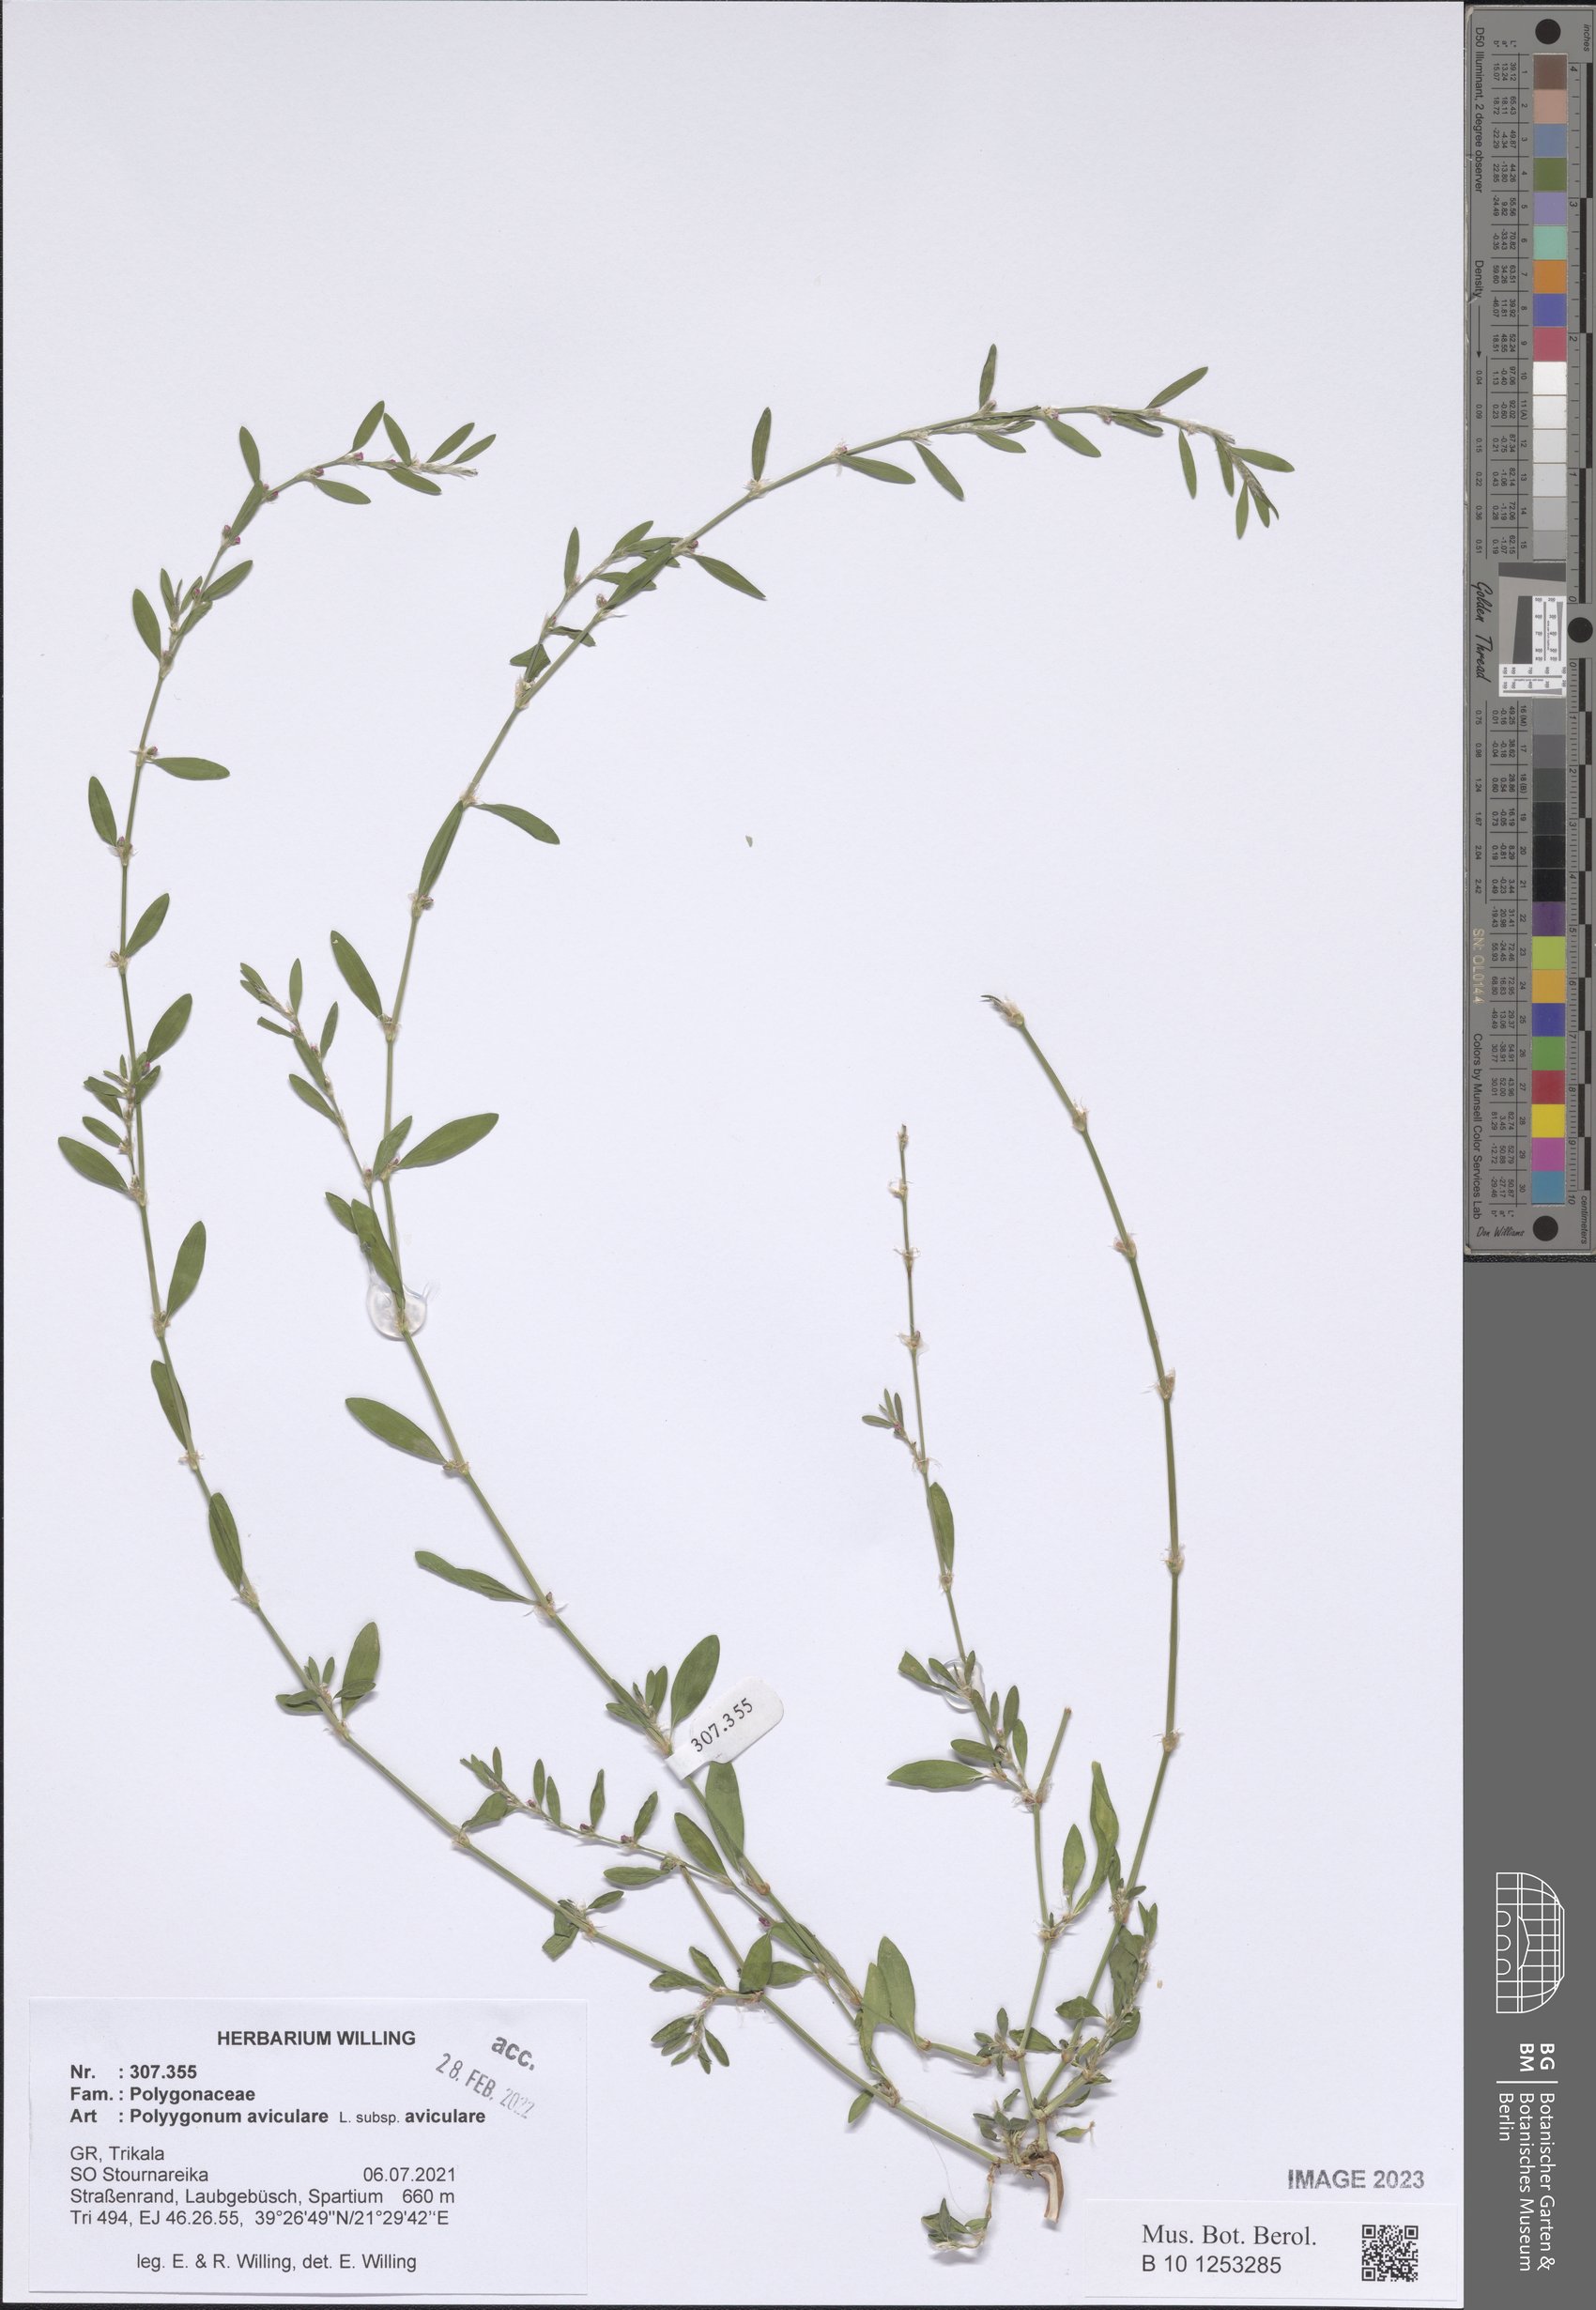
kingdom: Plantae
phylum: Tracheophyta
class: Magnoliopsida
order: Caryophyllales
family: Polygonaceae
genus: Polygonum
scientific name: Polygonum aviculare
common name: Prostrate knotweed
